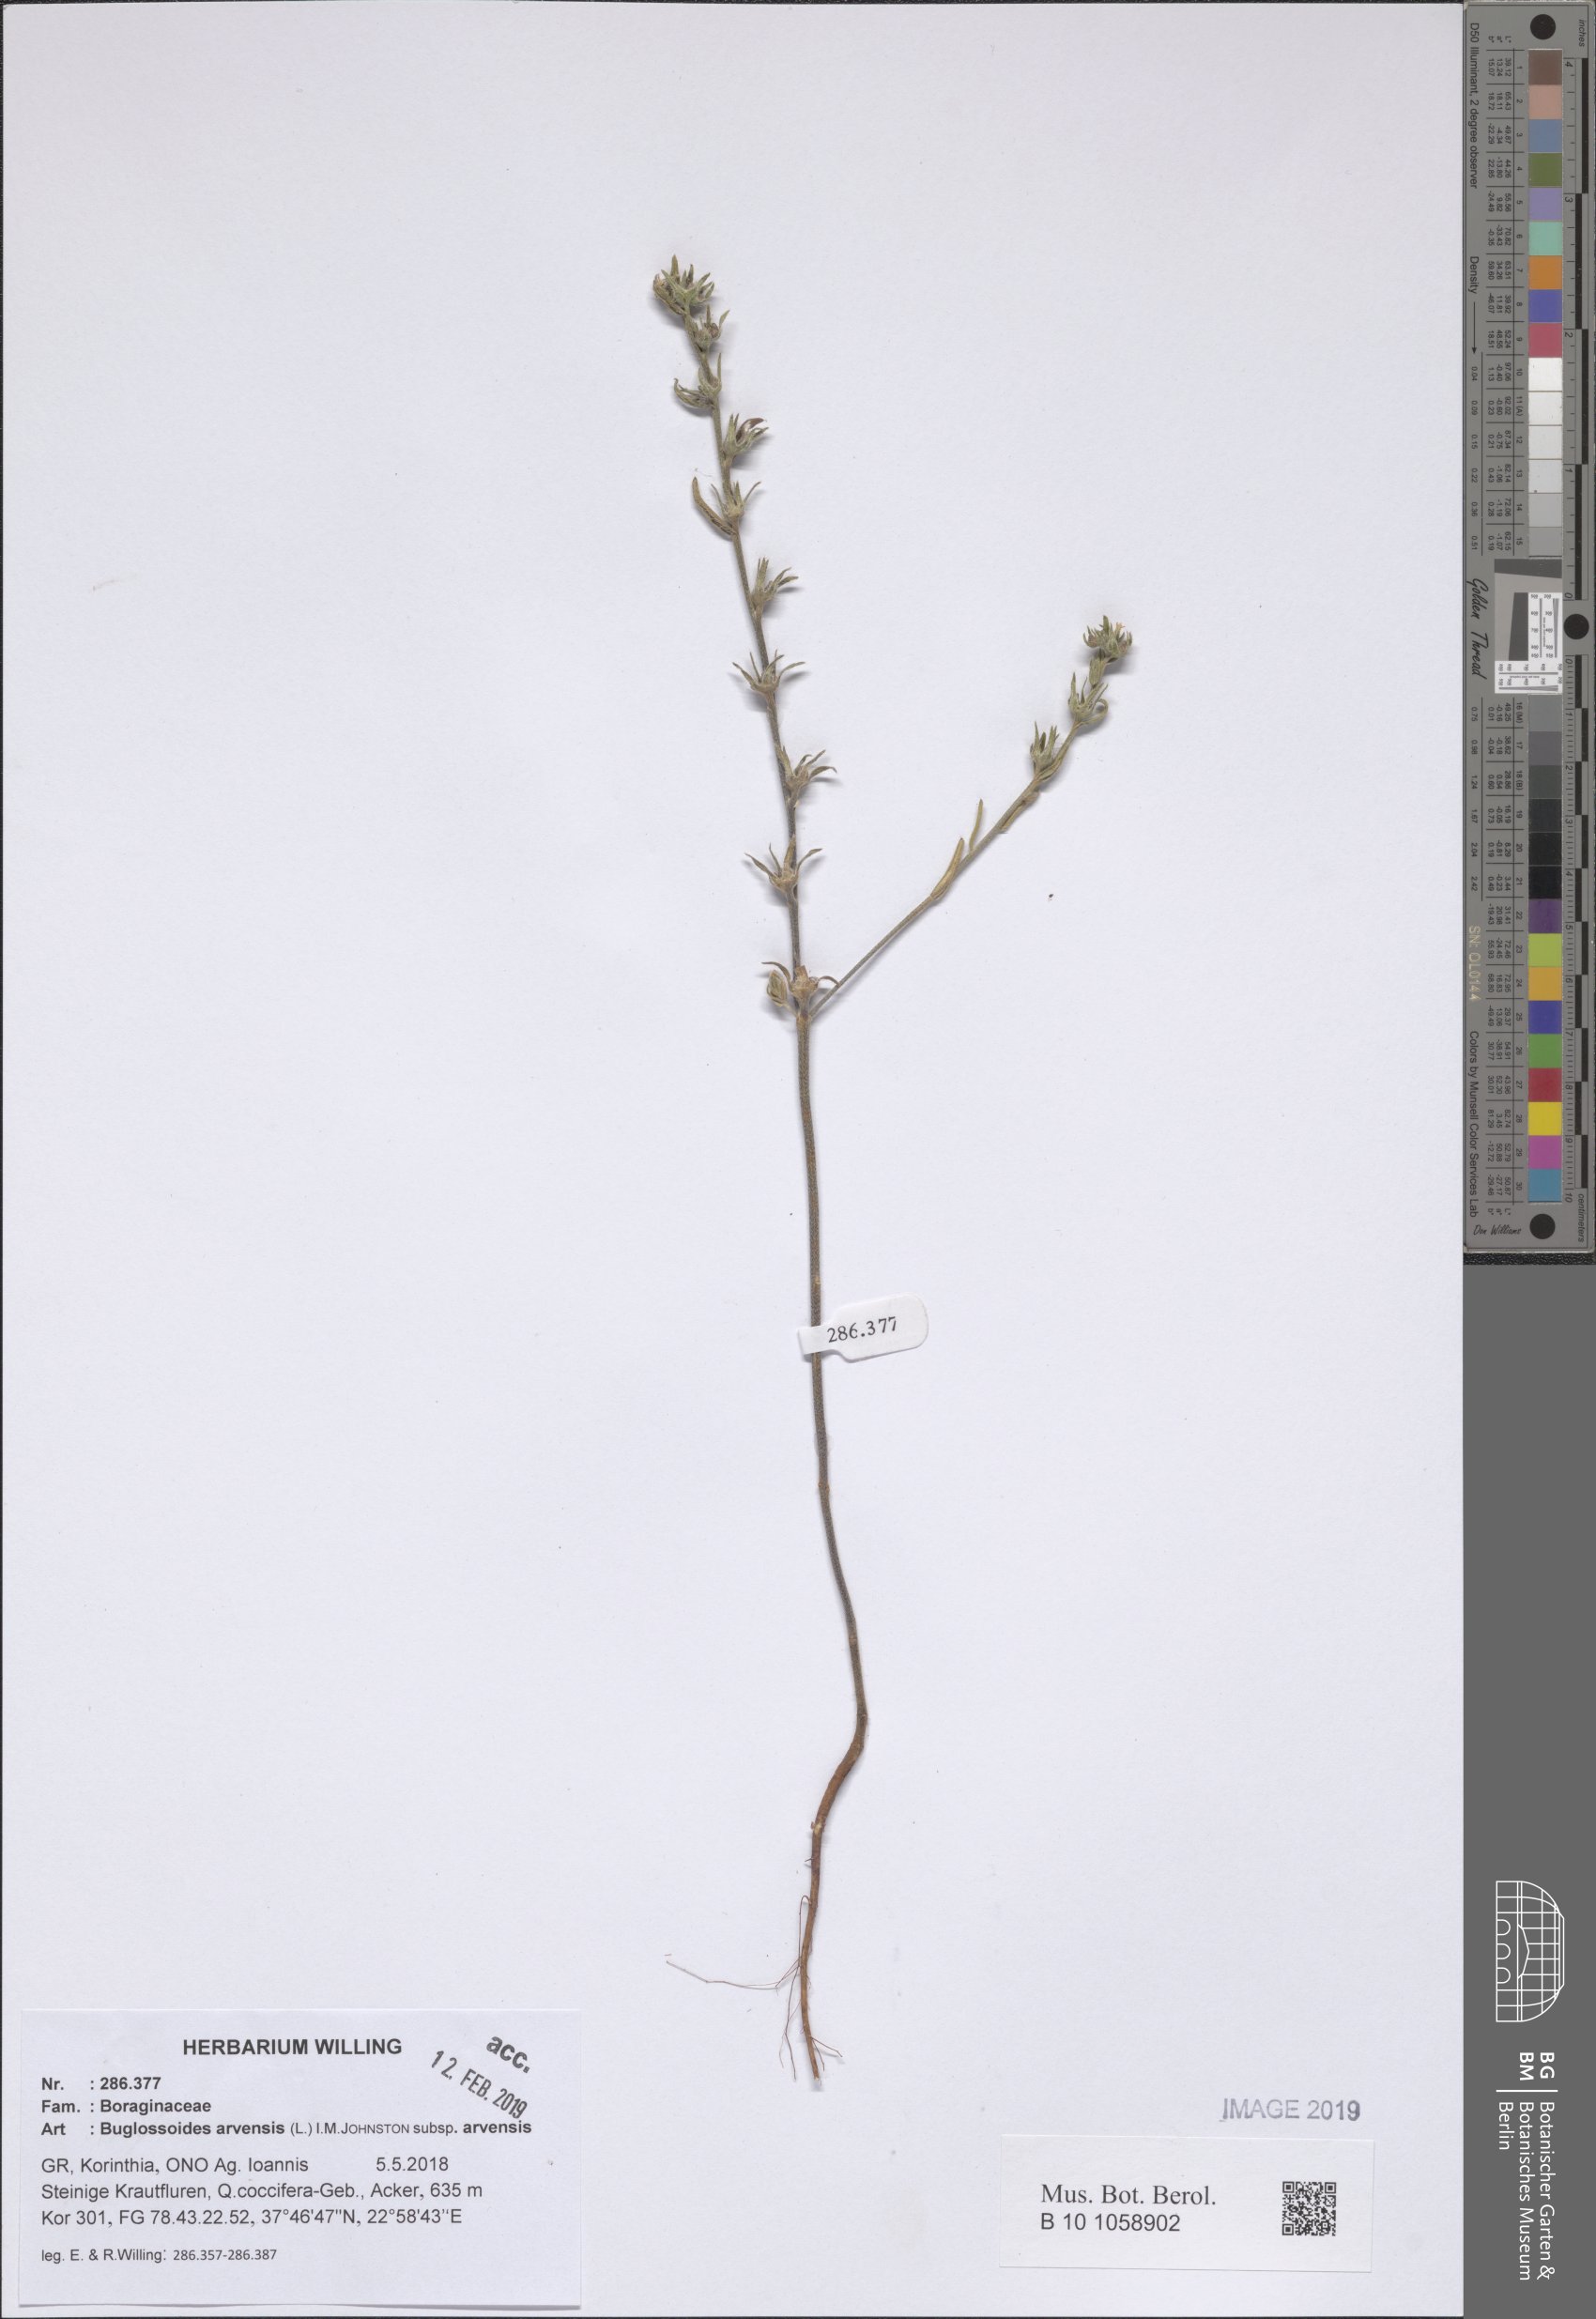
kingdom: Plantae
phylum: Tracheophyta
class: Magnoliopsida
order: Boraginales
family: Boraginaceae
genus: Buglossoides
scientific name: Buglossoides arvensis
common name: Corn gromwell
